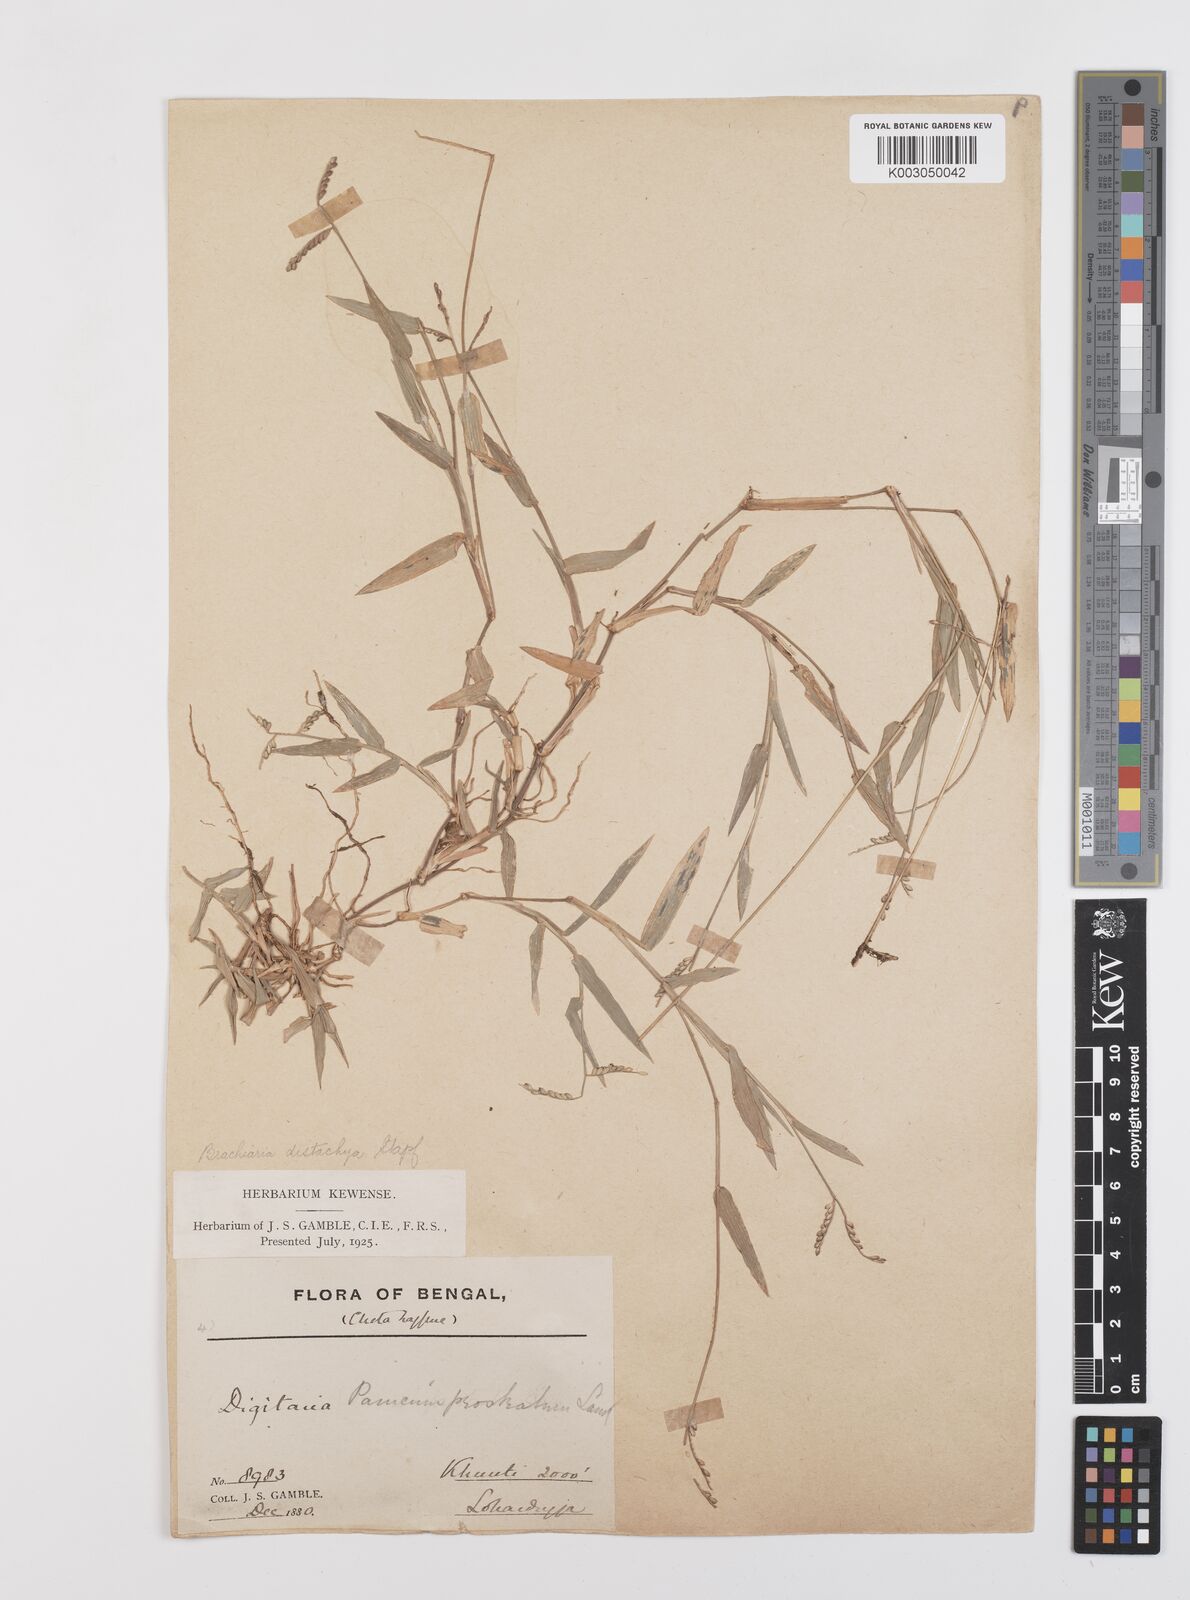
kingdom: Plantae
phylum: Tracheophyta
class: Liliopsida
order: Poales
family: Poaceae
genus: Urochloa
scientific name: Urochloa distachyos
